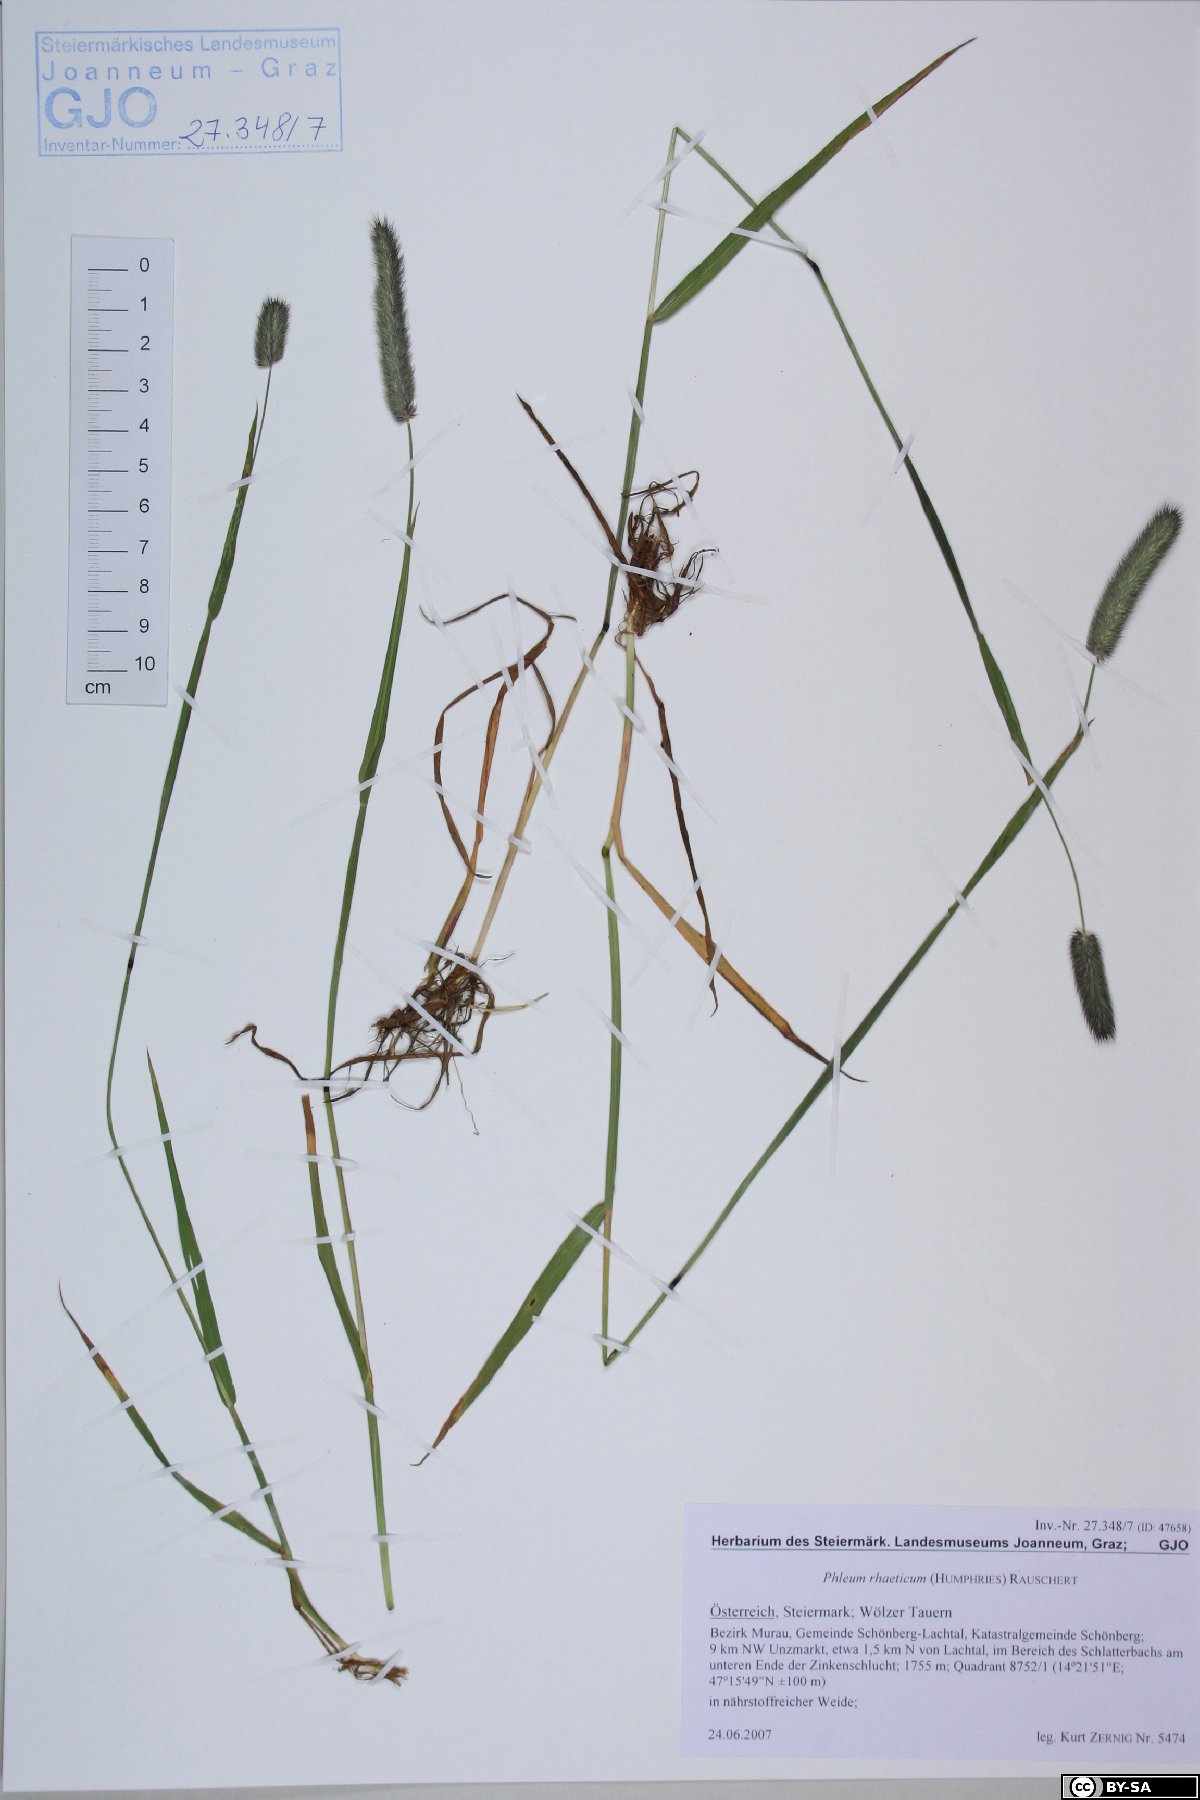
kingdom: Plantae
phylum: Tracheophyta
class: Liliopsida
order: Poales
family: Poaceae
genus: Phleum
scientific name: Phleum alpinum
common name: Alpine cat's-tail
